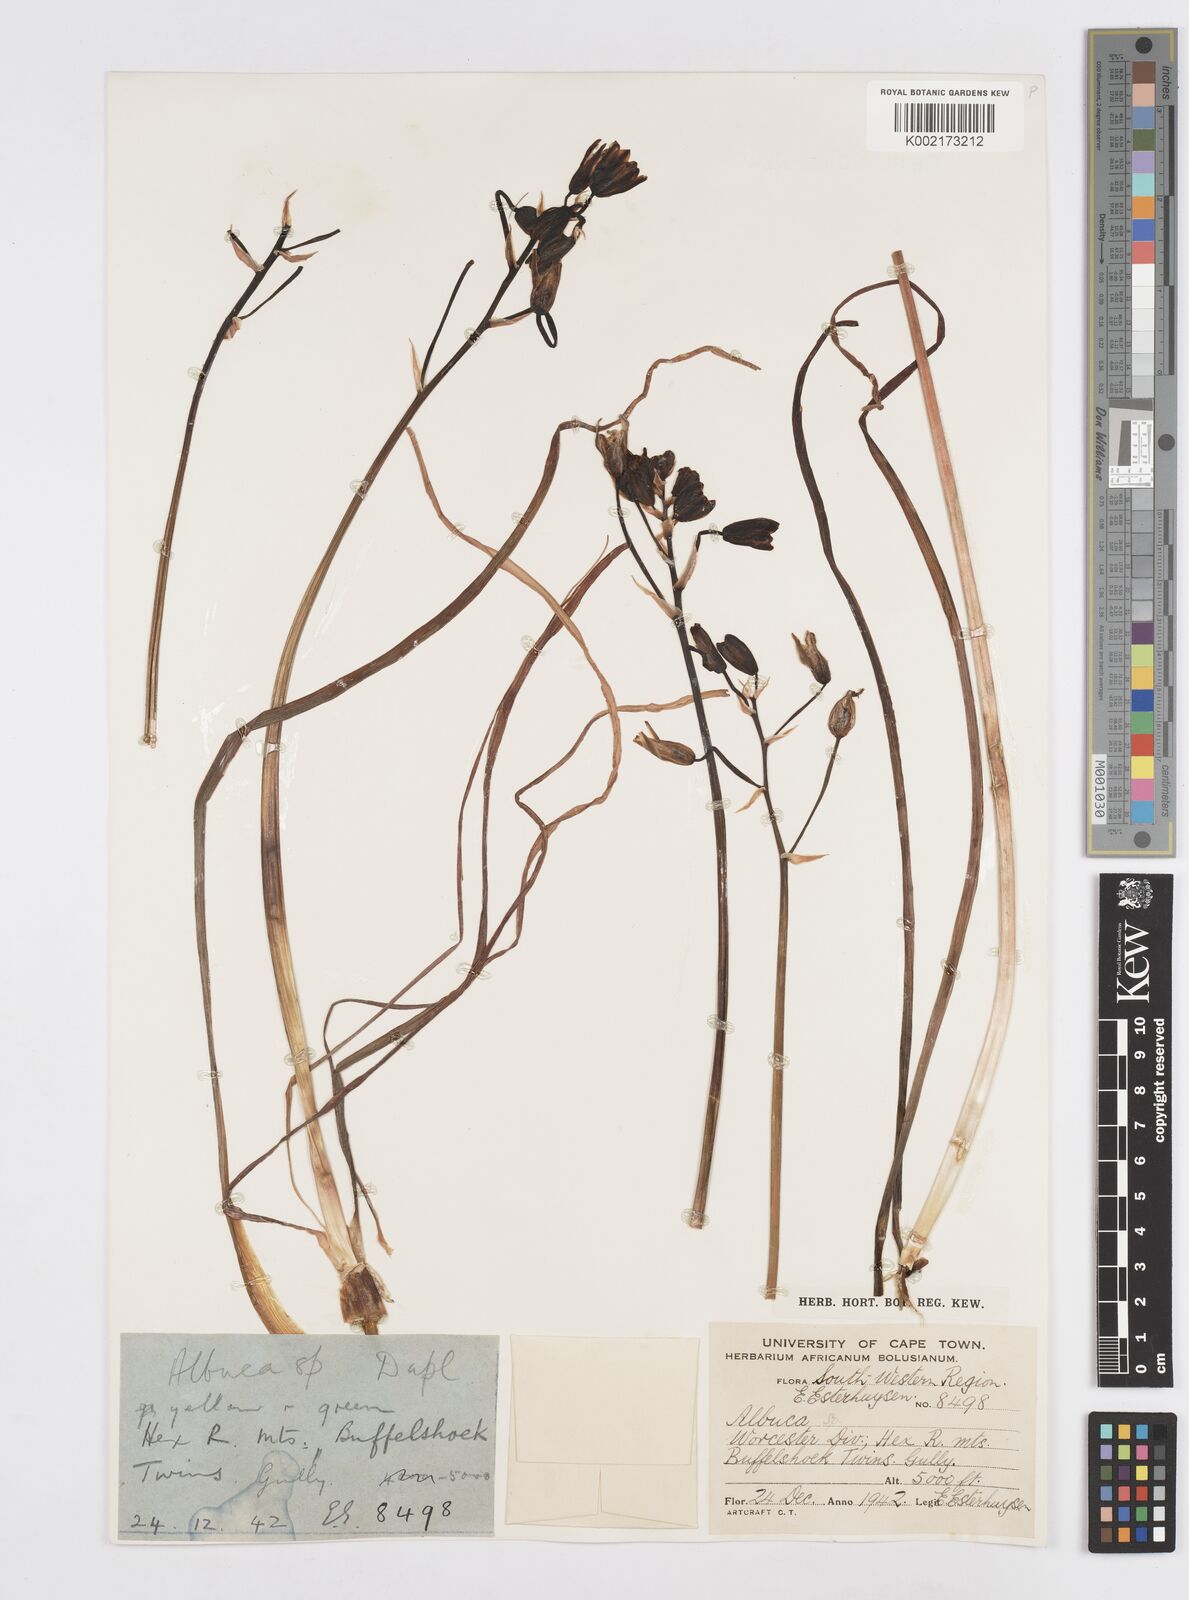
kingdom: Plantae
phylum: Tracheophyta
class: Liliopsida
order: Asparagales
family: Asparagaceae
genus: Albuca
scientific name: Albuca
